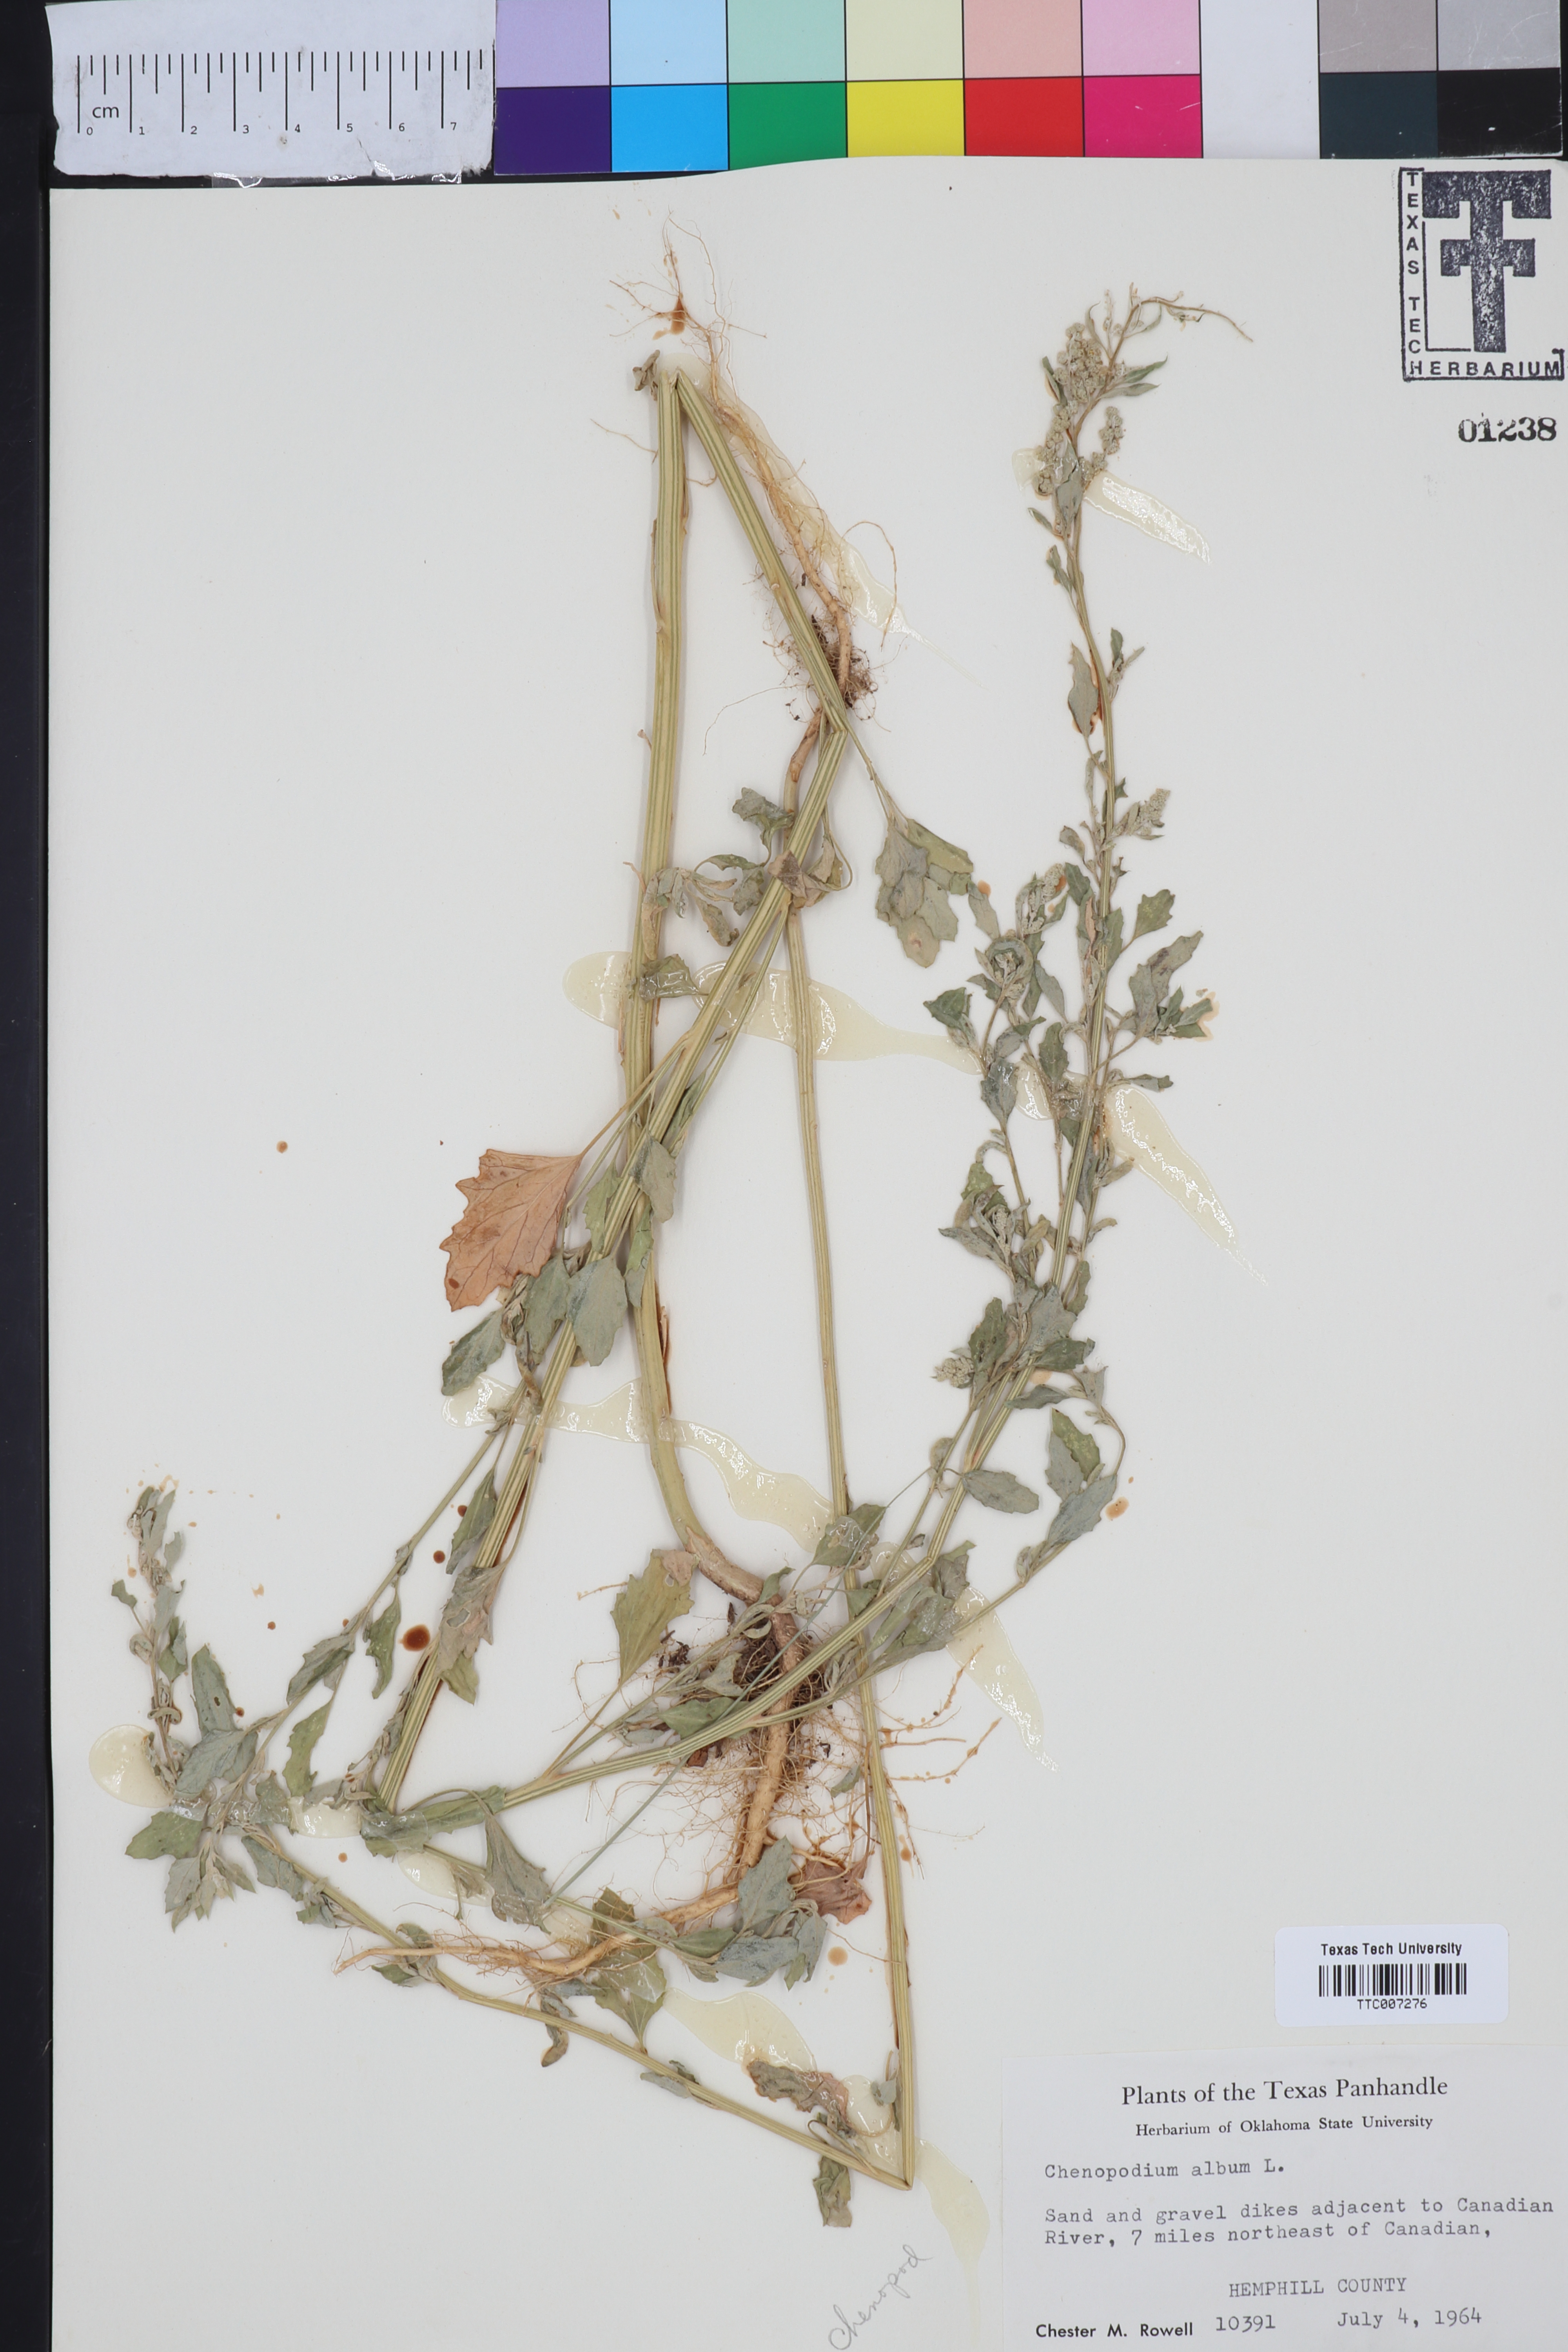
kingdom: Plantae
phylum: Tracheophyta
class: Magnoliopsida
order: Caryophyllales
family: Amaranthaceae
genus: Chenopodium
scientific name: Chenopodium album
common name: Fat-hen
